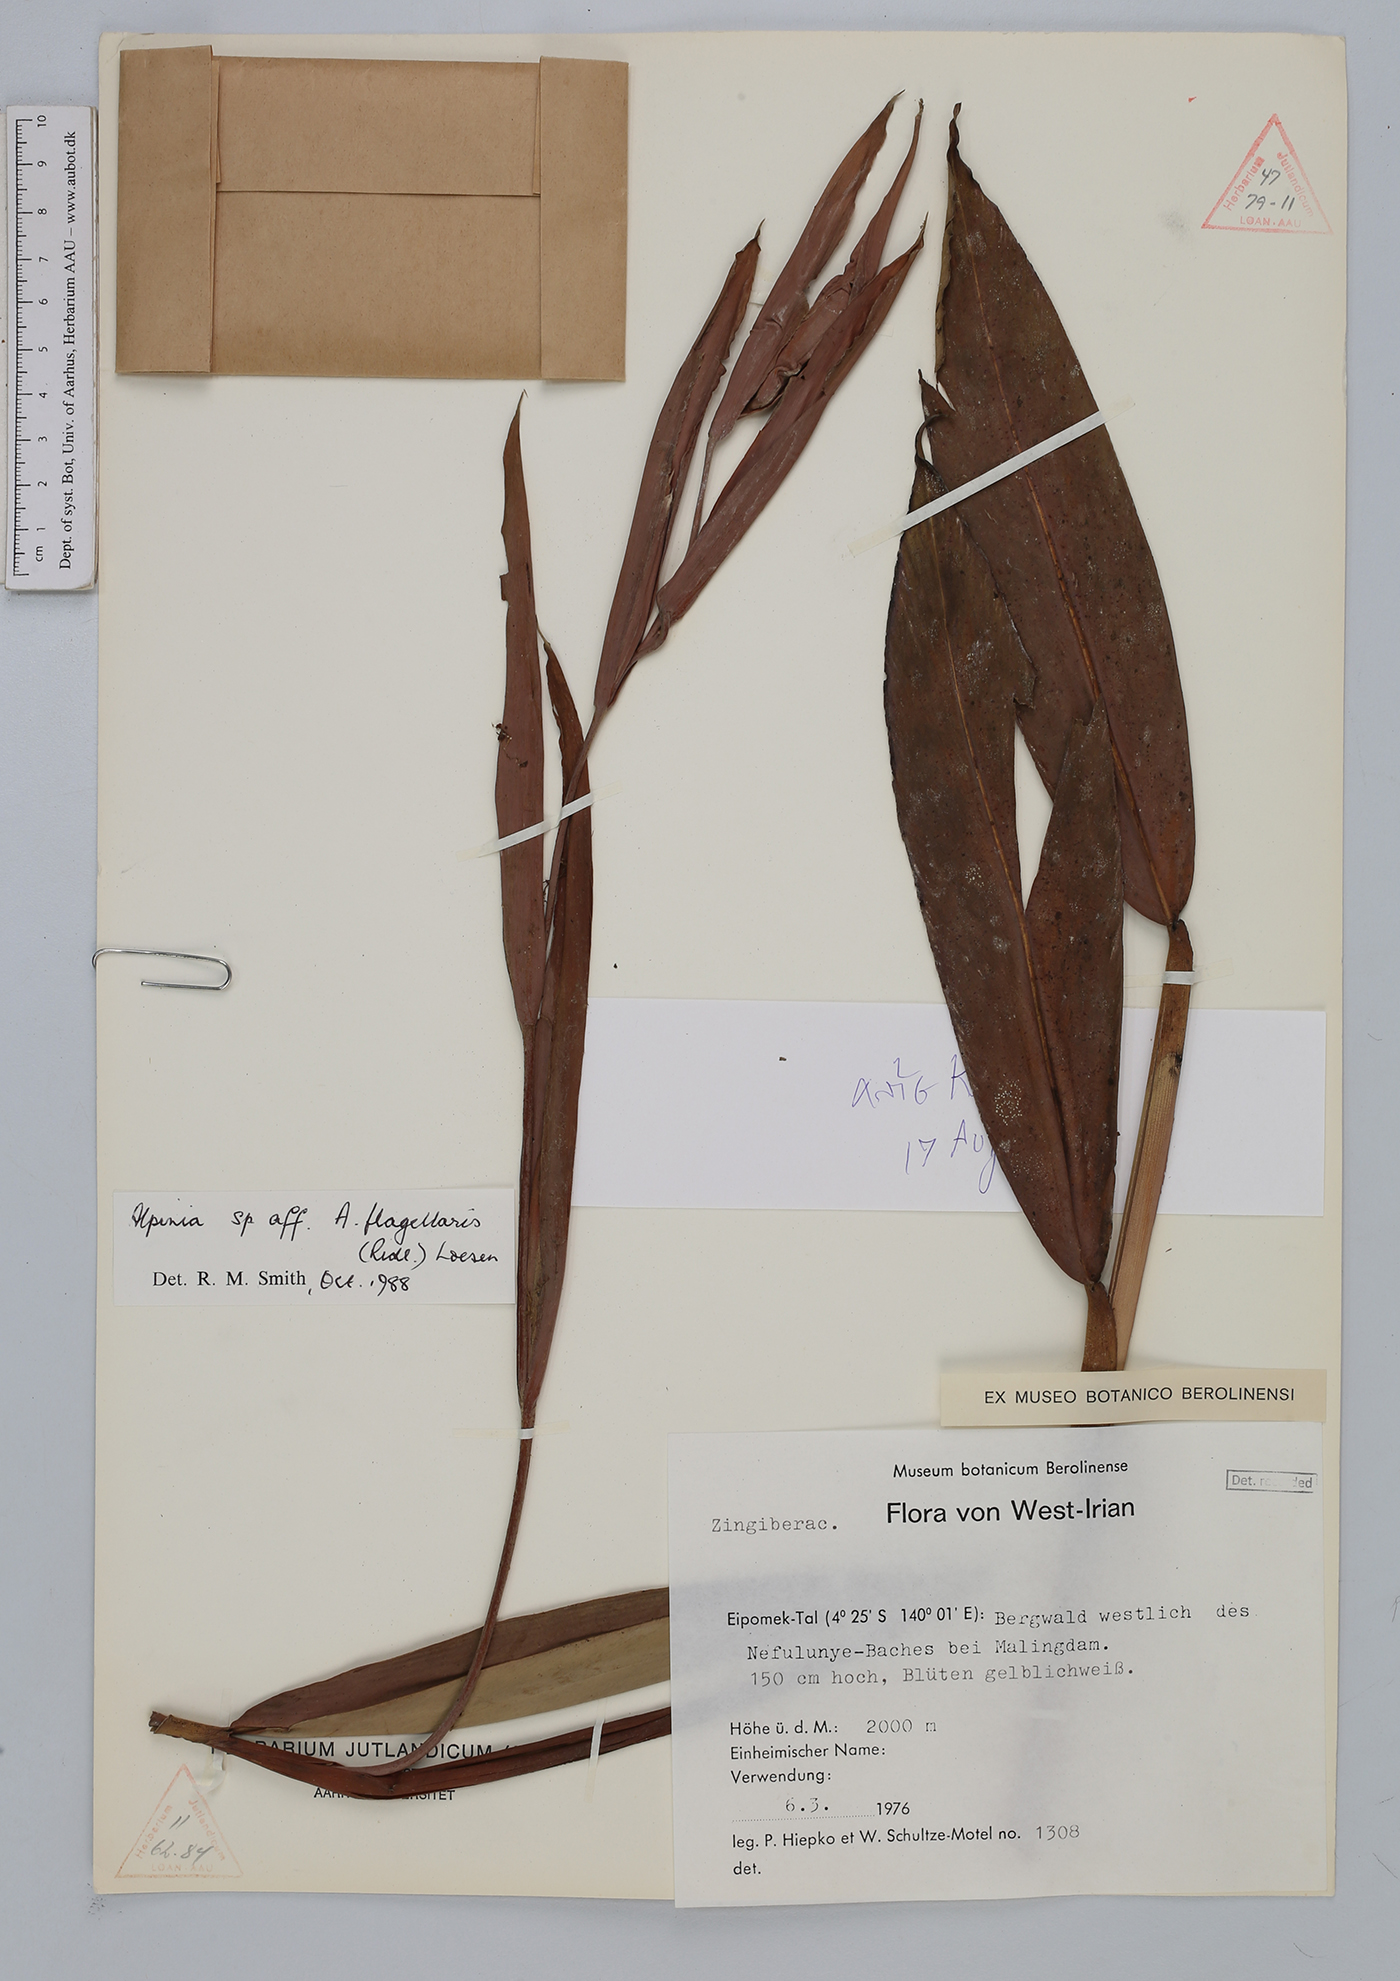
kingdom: Plantae
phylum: Tracheophyta
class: Liliopsida
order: Zingiberales
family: Zingiberaceae
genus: Alpinia
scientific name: Alpinia
